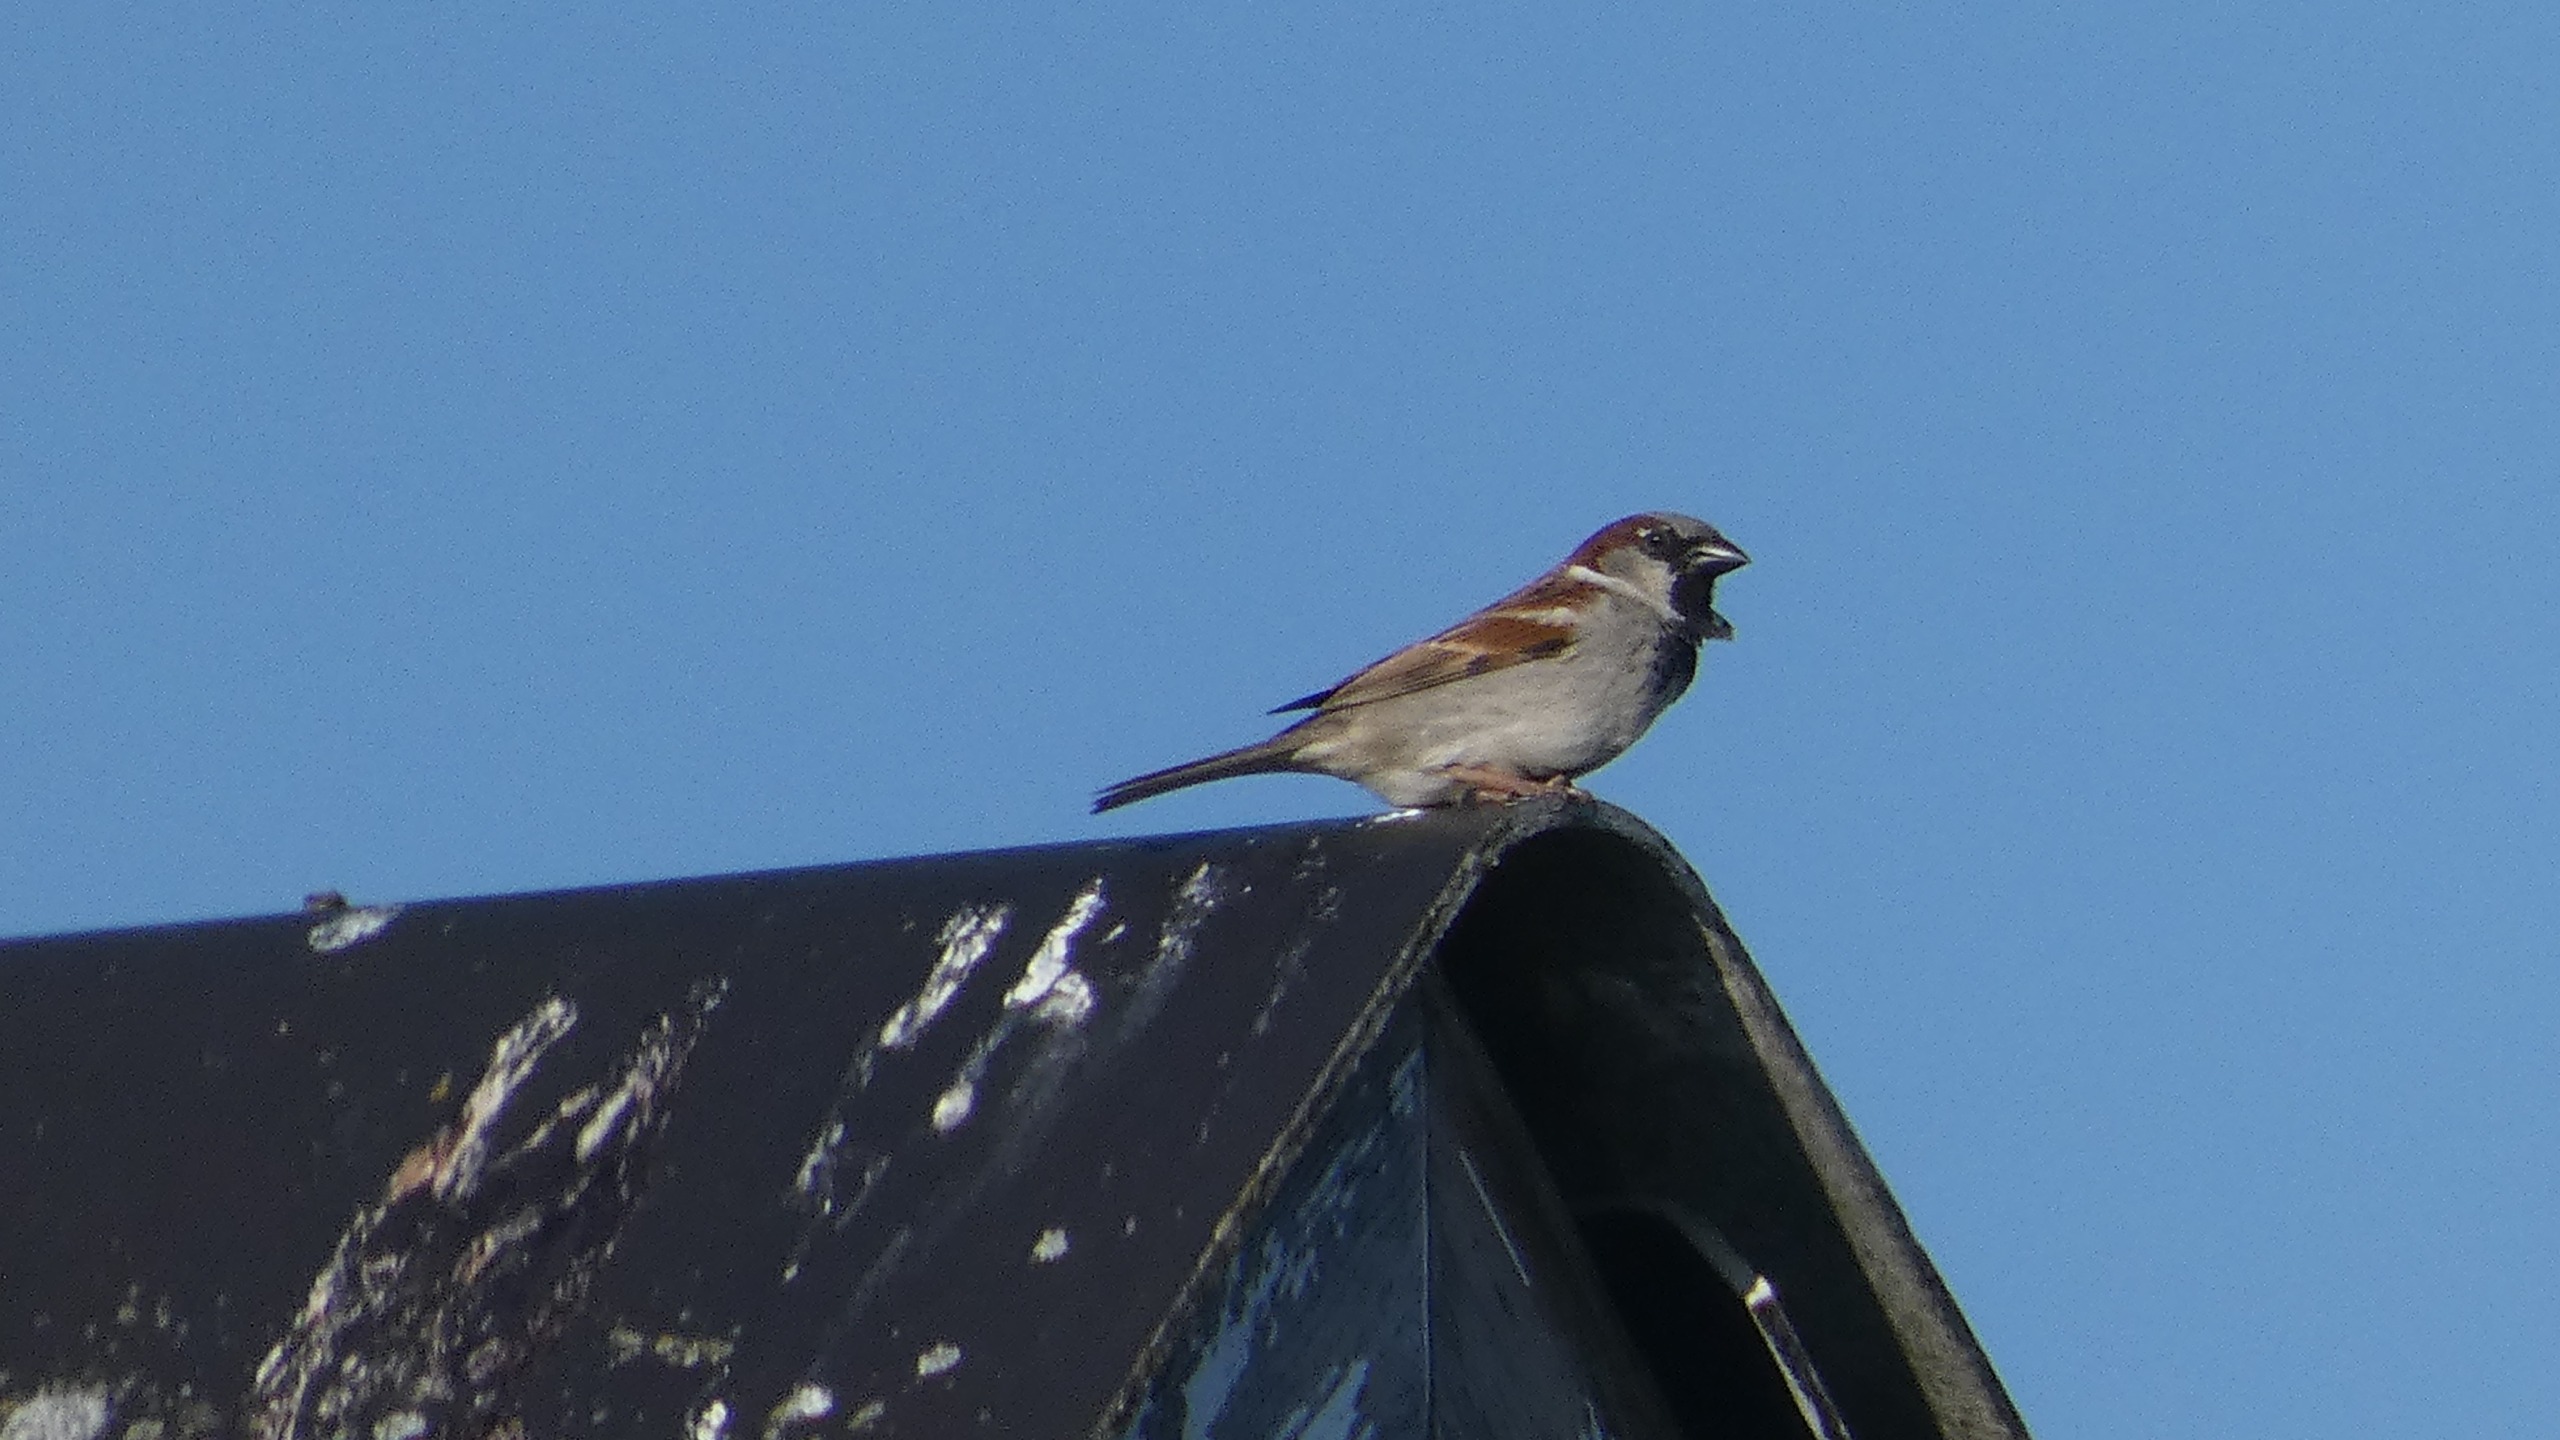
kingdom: Animalia
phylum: Chordata
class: Aves
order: Passeriformes
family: Passeridae
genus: Passer
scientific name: Passer domesticus
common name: Gråspurv
